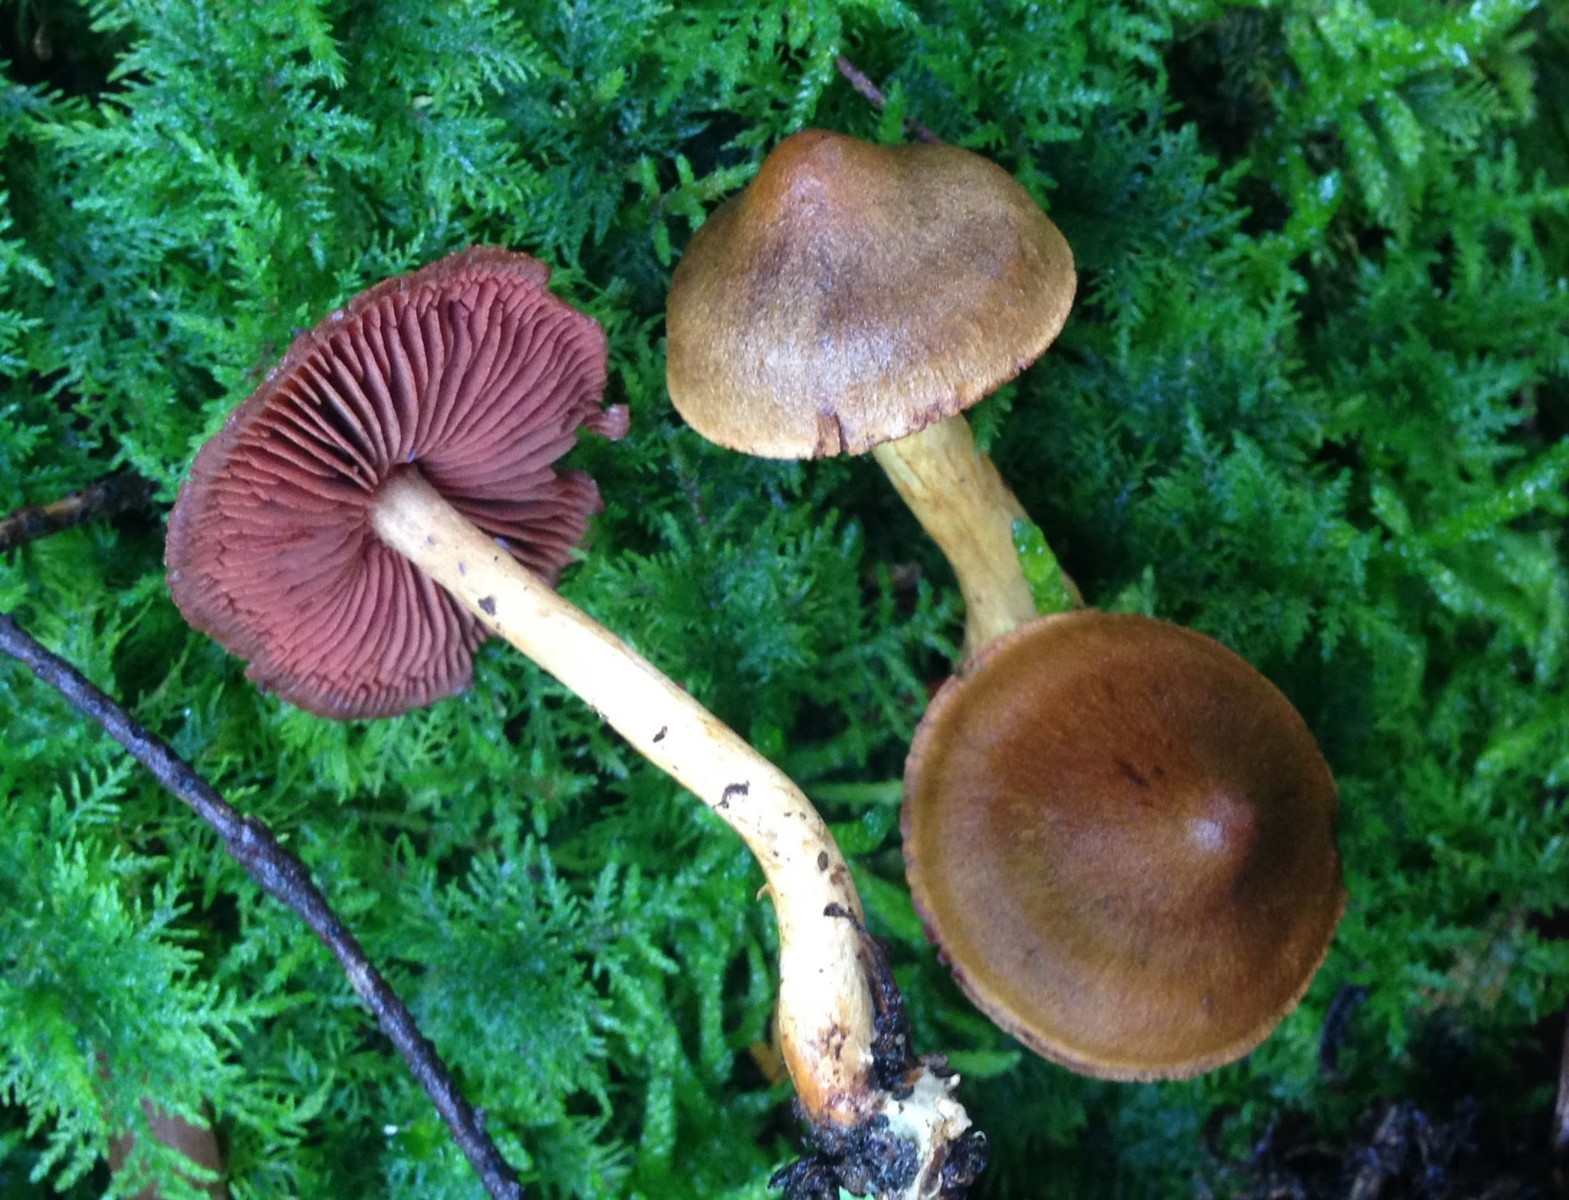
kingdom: Fungi
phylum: Basidiomycota
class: Agaricomycetes
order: Agaricales
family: Cortinariaceae
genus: Cortinarius
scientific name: Cortinarius
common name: cinnoberbladet slørhat
